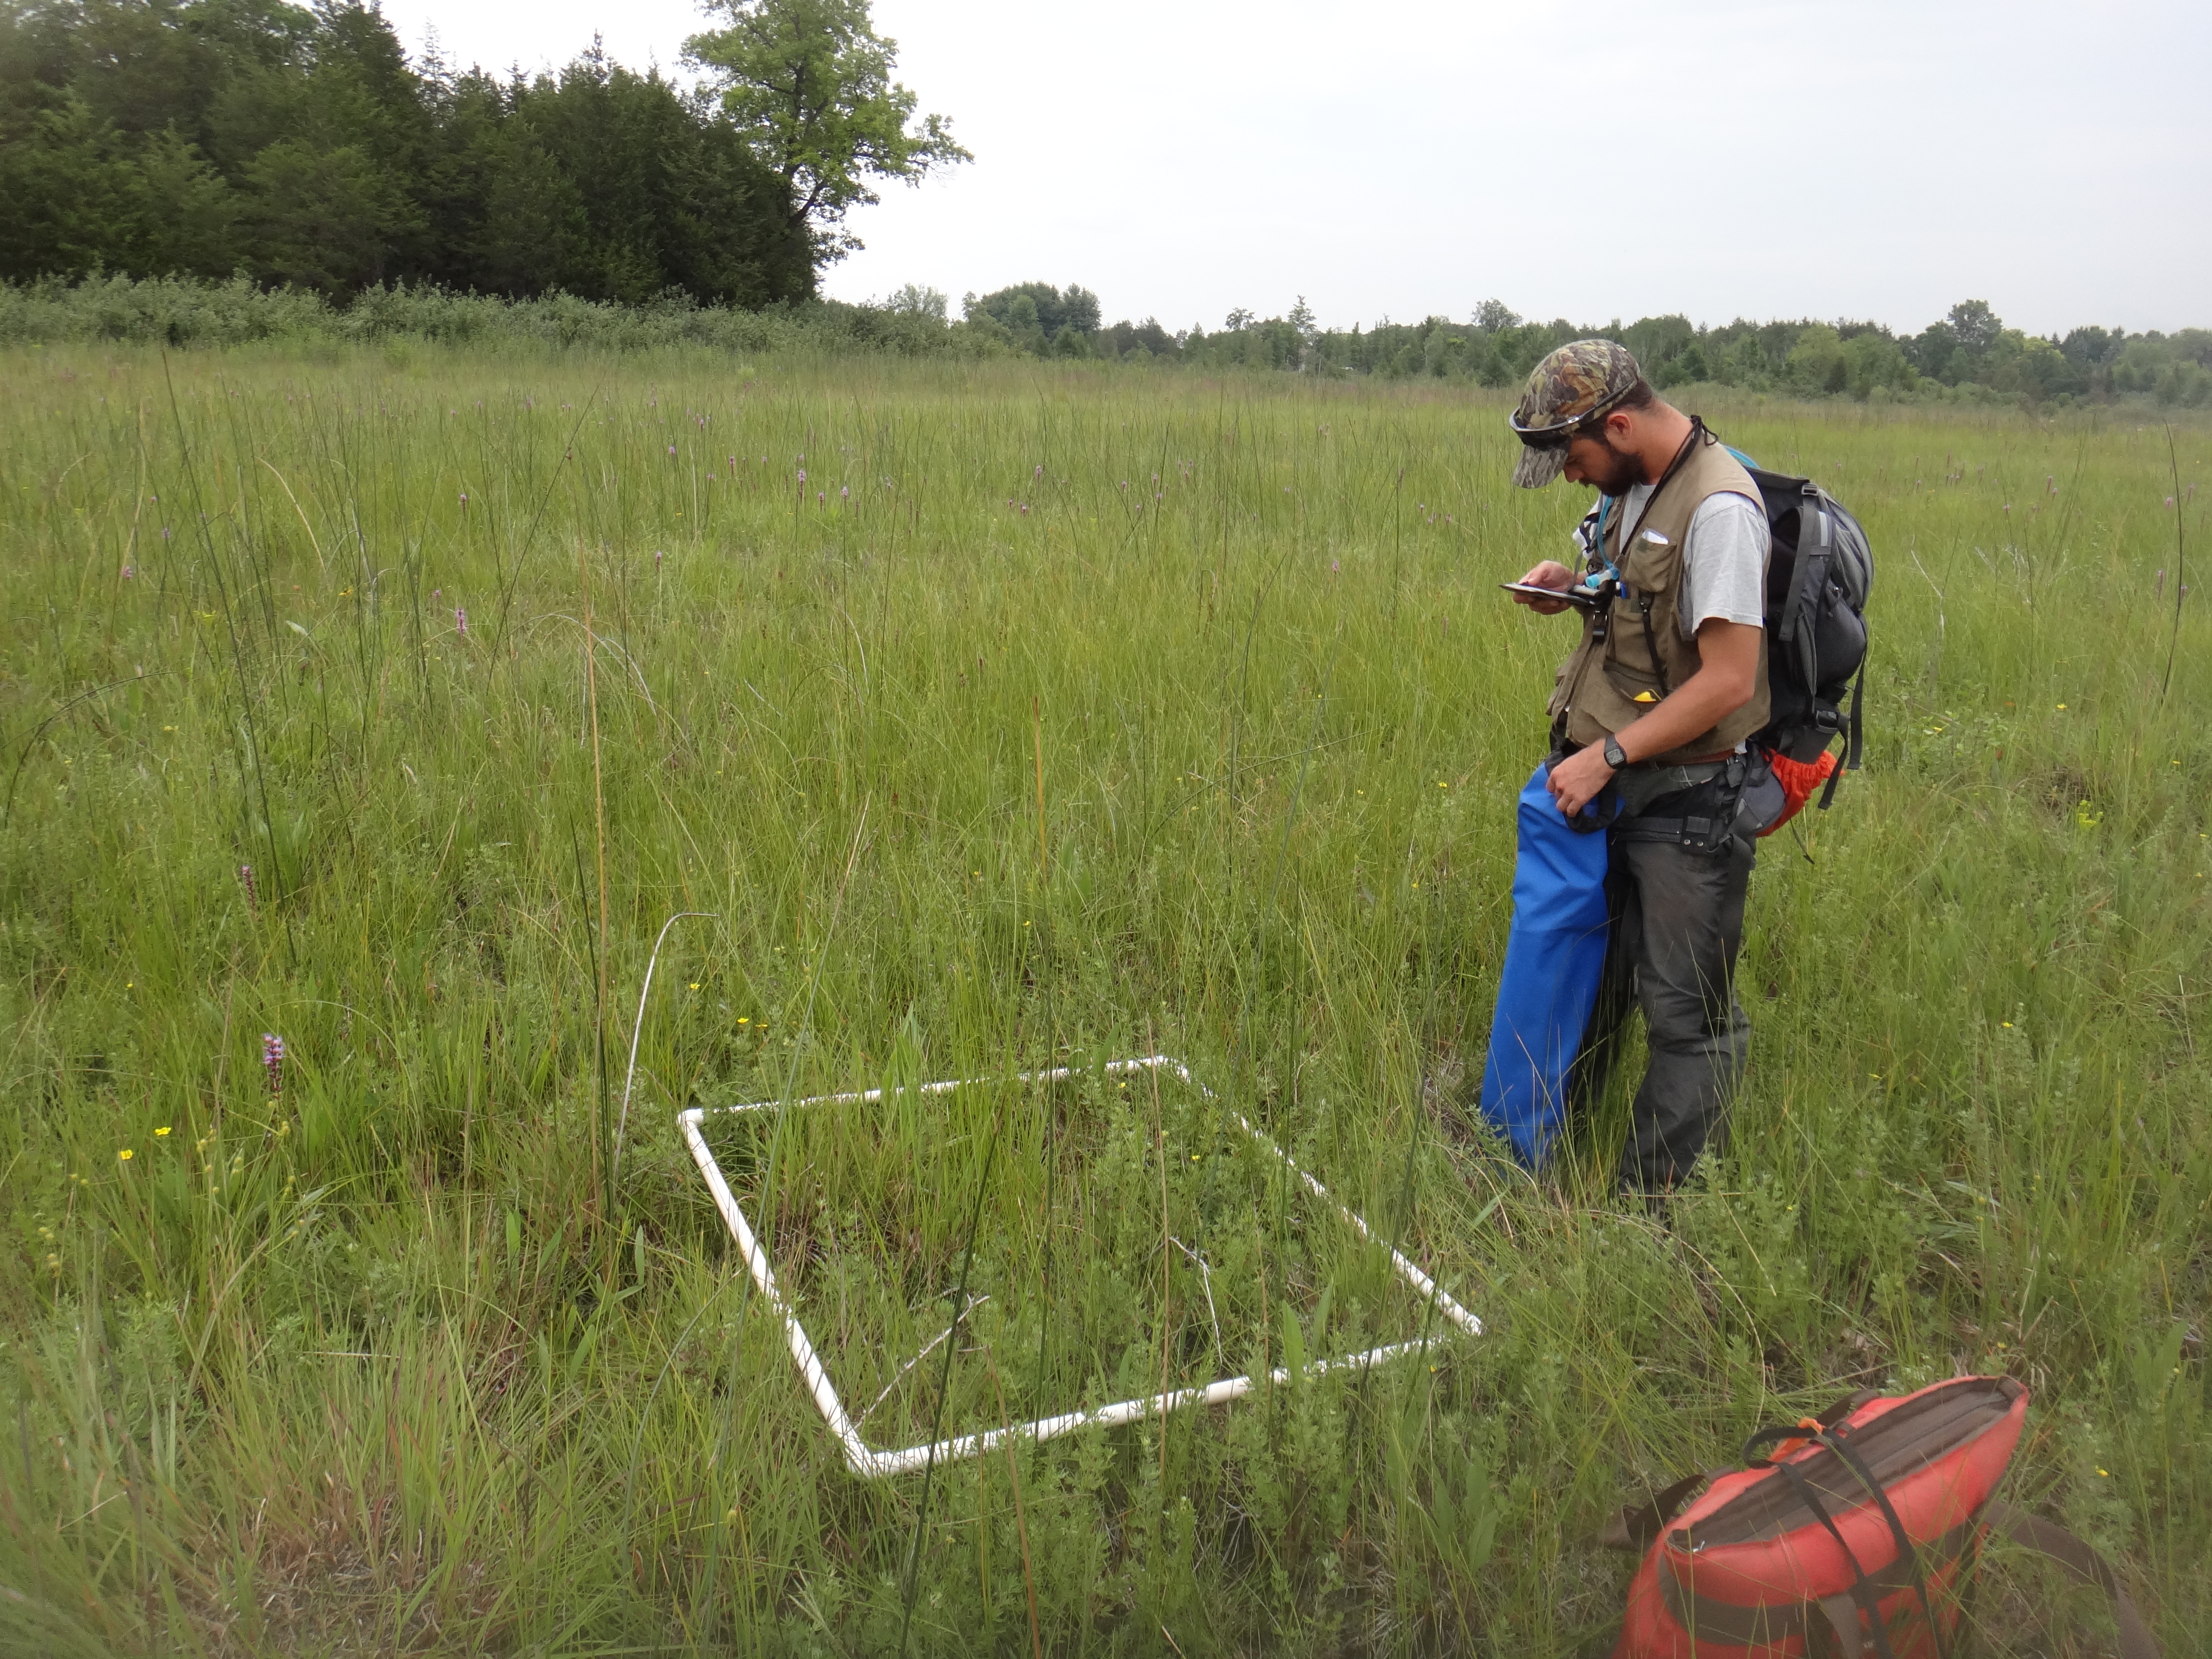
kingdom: Plantae
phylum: Tracheophyta
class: Liliopsida
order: Poales
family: Cyperaceae
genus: Eleocharis
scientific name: Eleocharis rostellata
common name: Walking sedge
